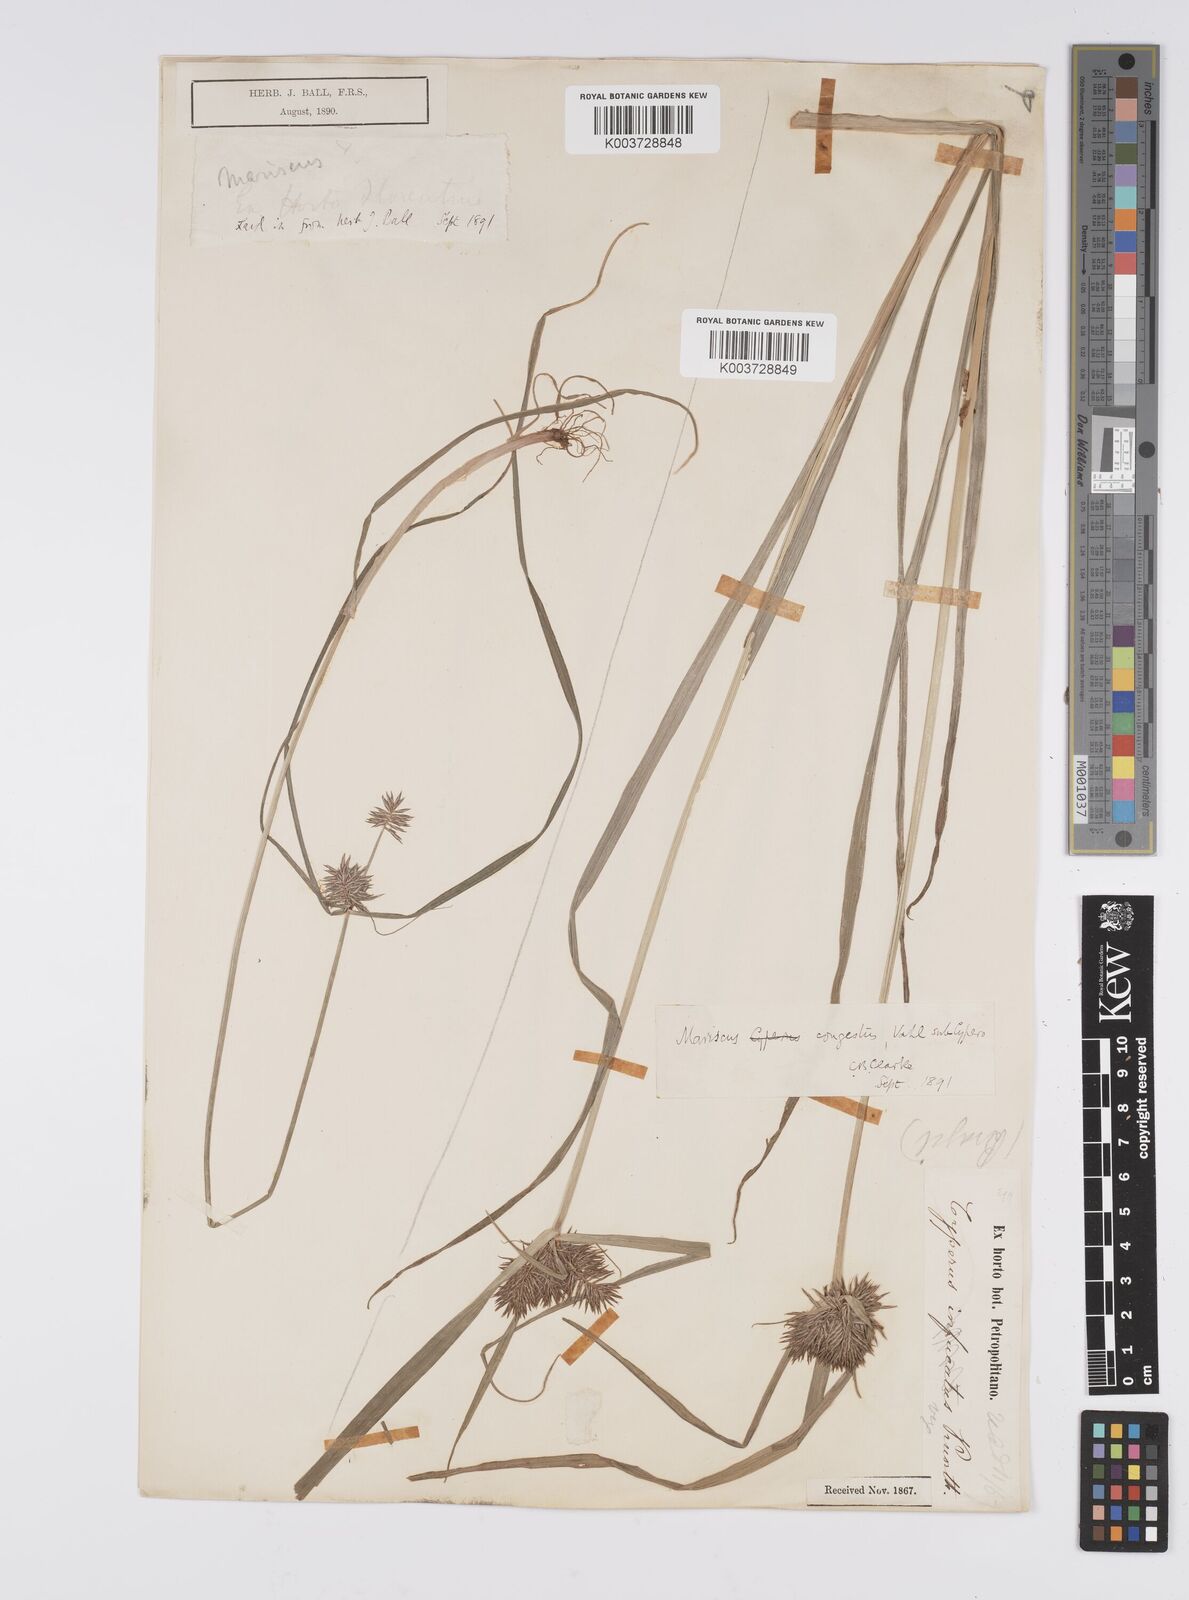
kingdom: Plantae
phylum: Tracheophyta
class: Liliopsida
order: Poales
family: Cyperaceae
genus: Cyperus
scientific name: Cyperus congestus
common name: Dense flat sedge
